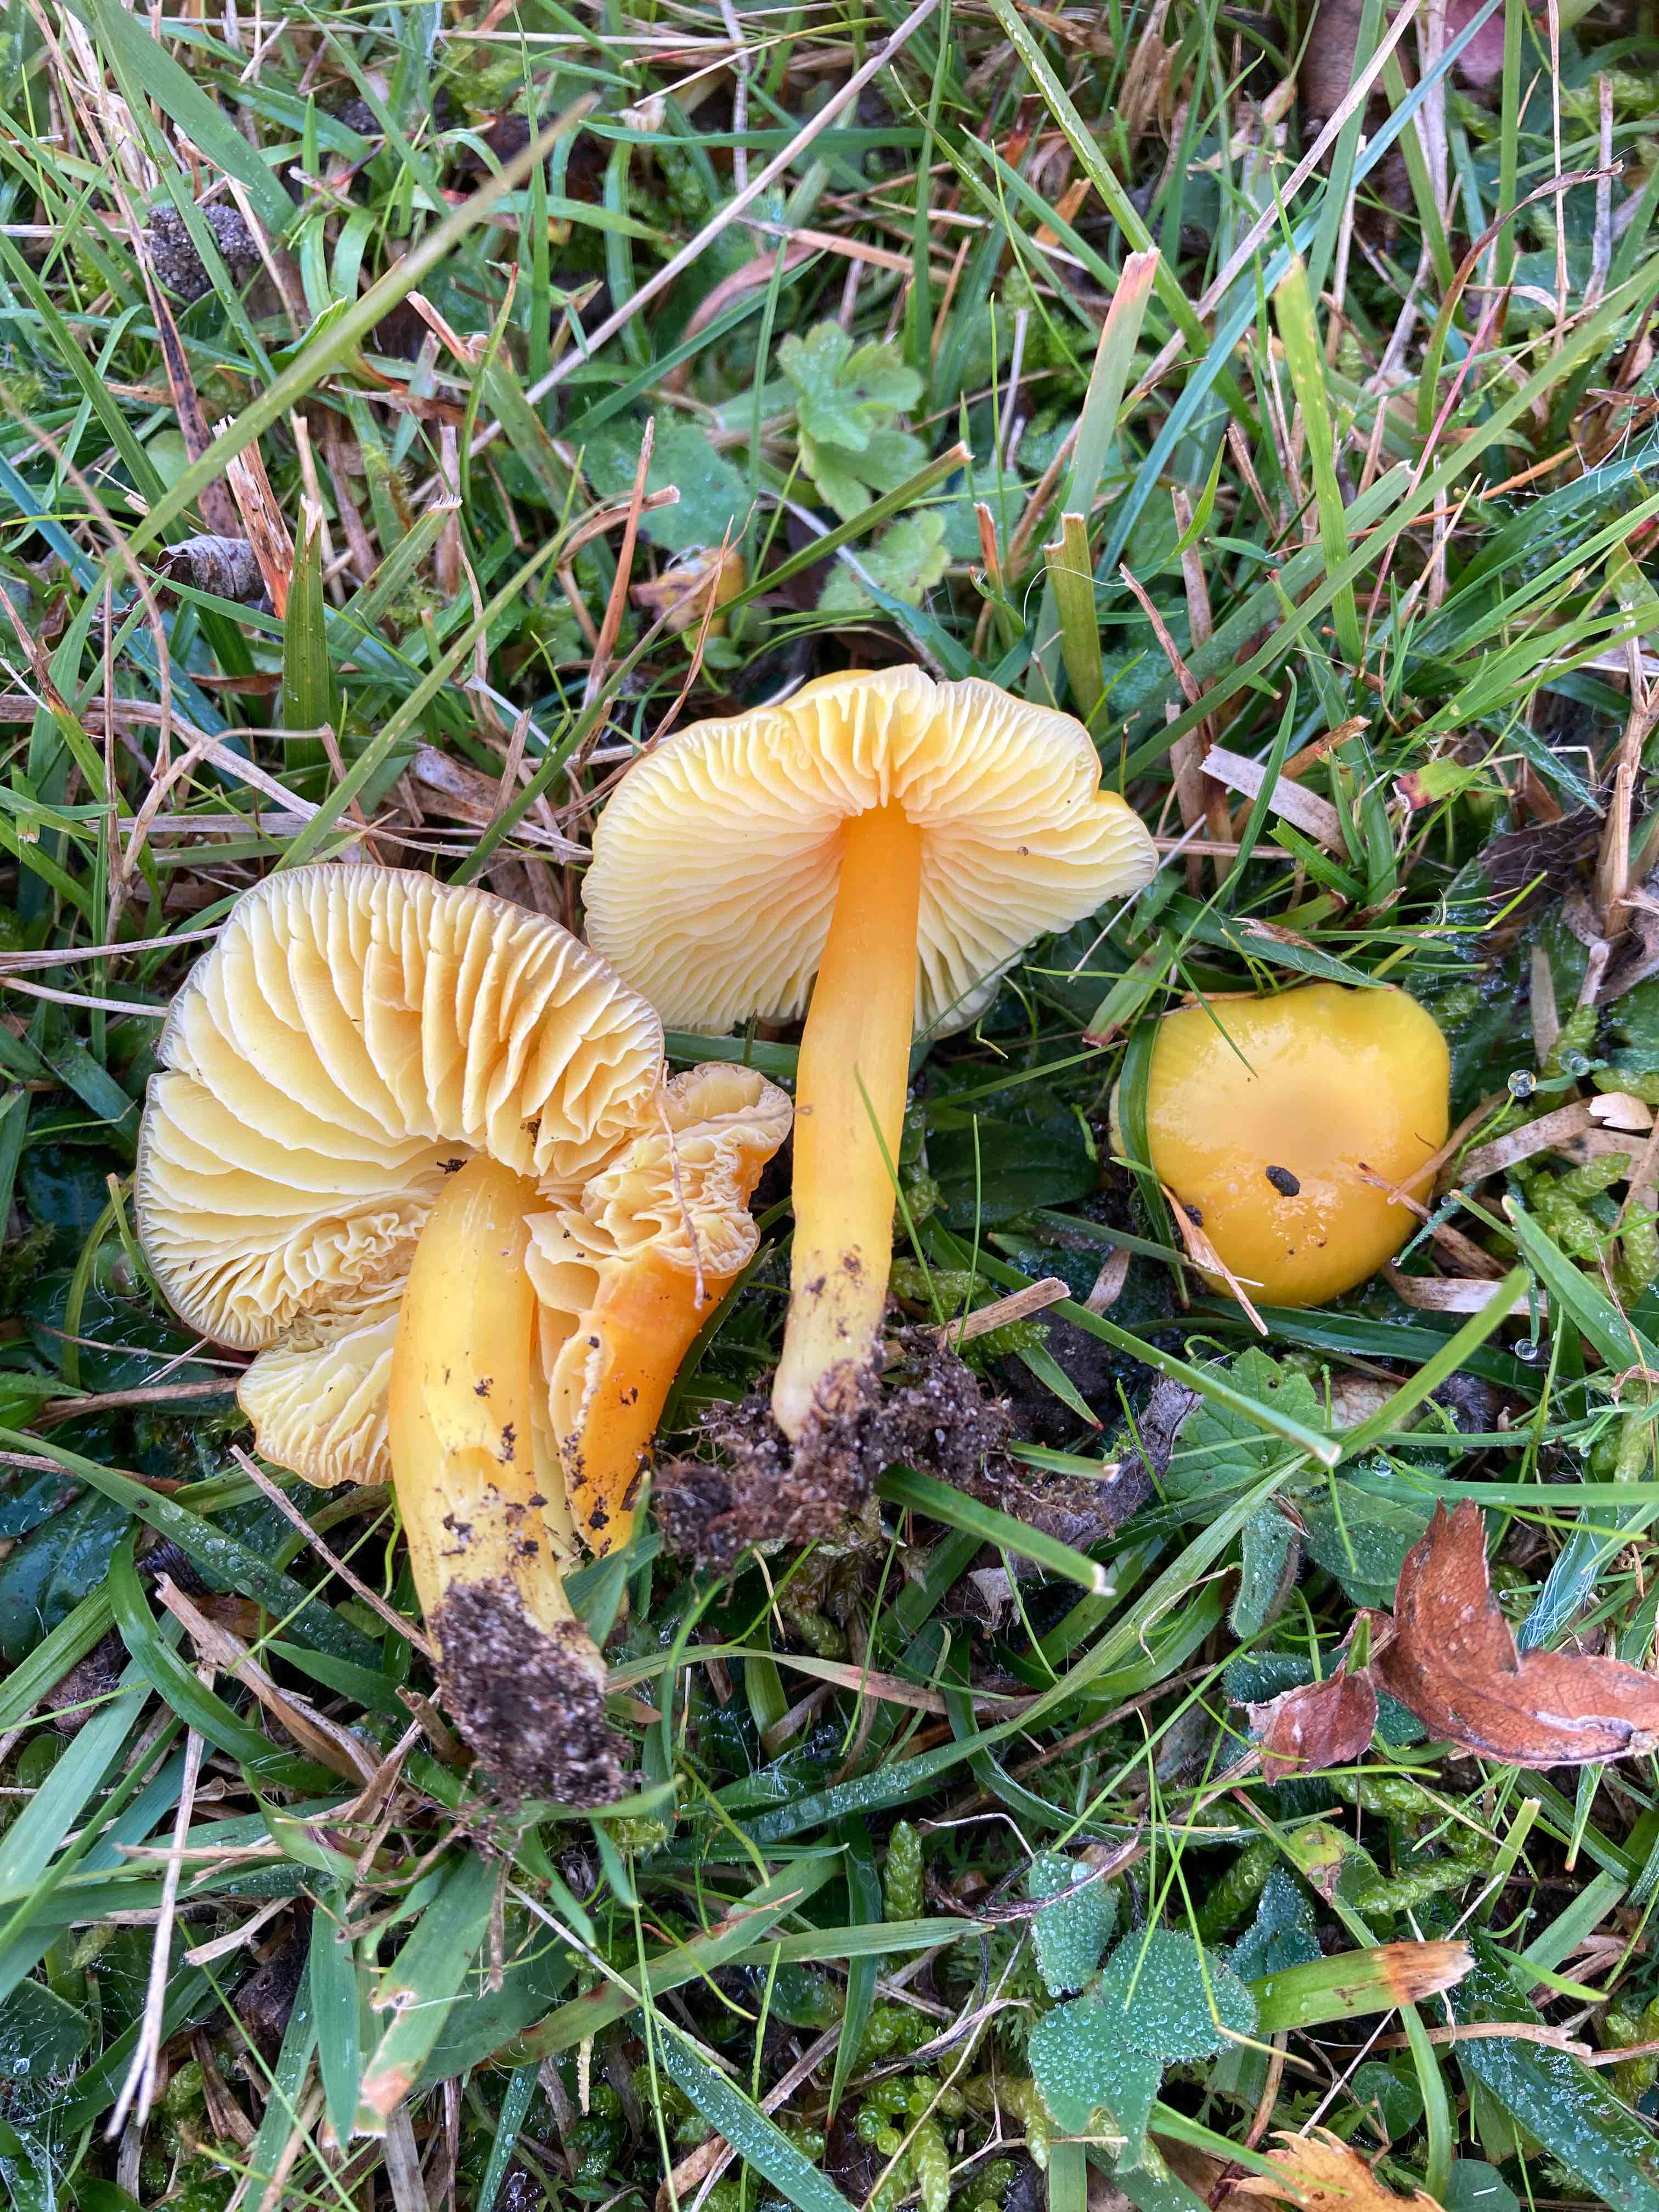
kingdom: Fungi
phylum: Basidiomycota
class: Agaricomycetes
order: Agaricales
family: Hygrophoraceae
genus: Hygrocybe
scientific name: Hygrocybe chlorophana
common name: gul vokshat
